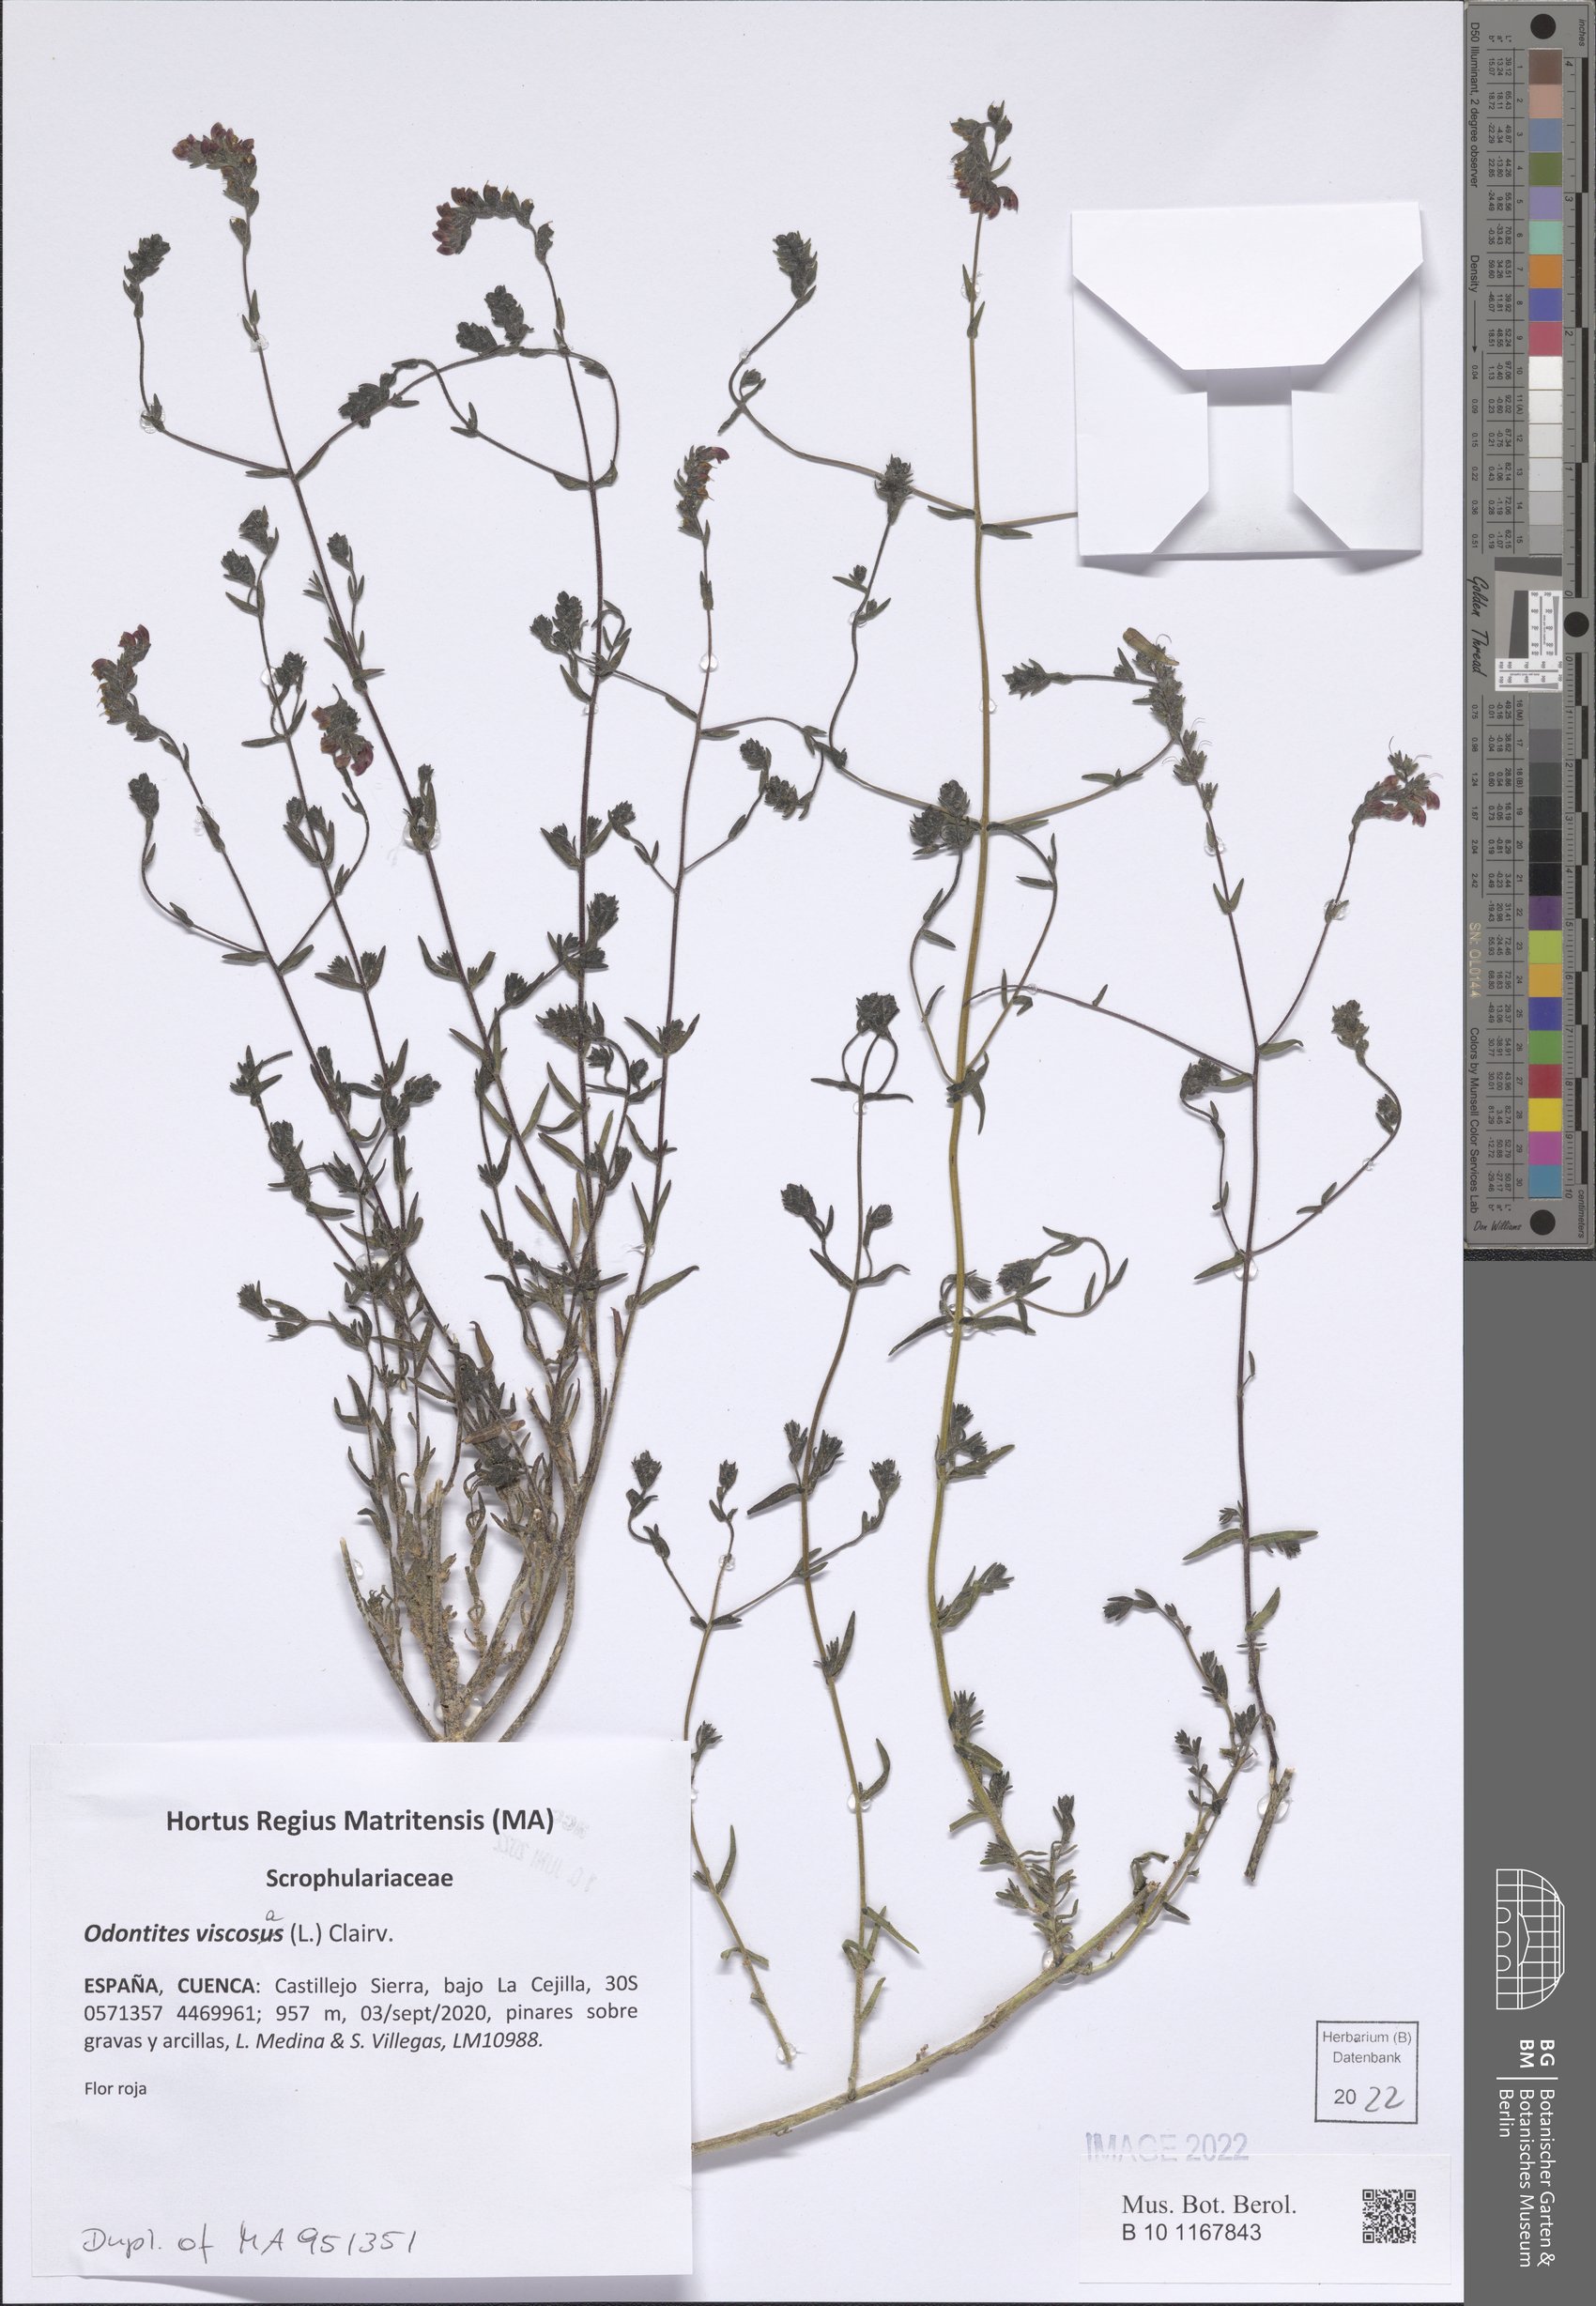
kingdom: Plantae
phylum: Tracheophyta
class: Magnoliopsida
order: Lamiales
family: Scrophulariaceae
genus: Odontites
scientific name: Odontites viscosus
